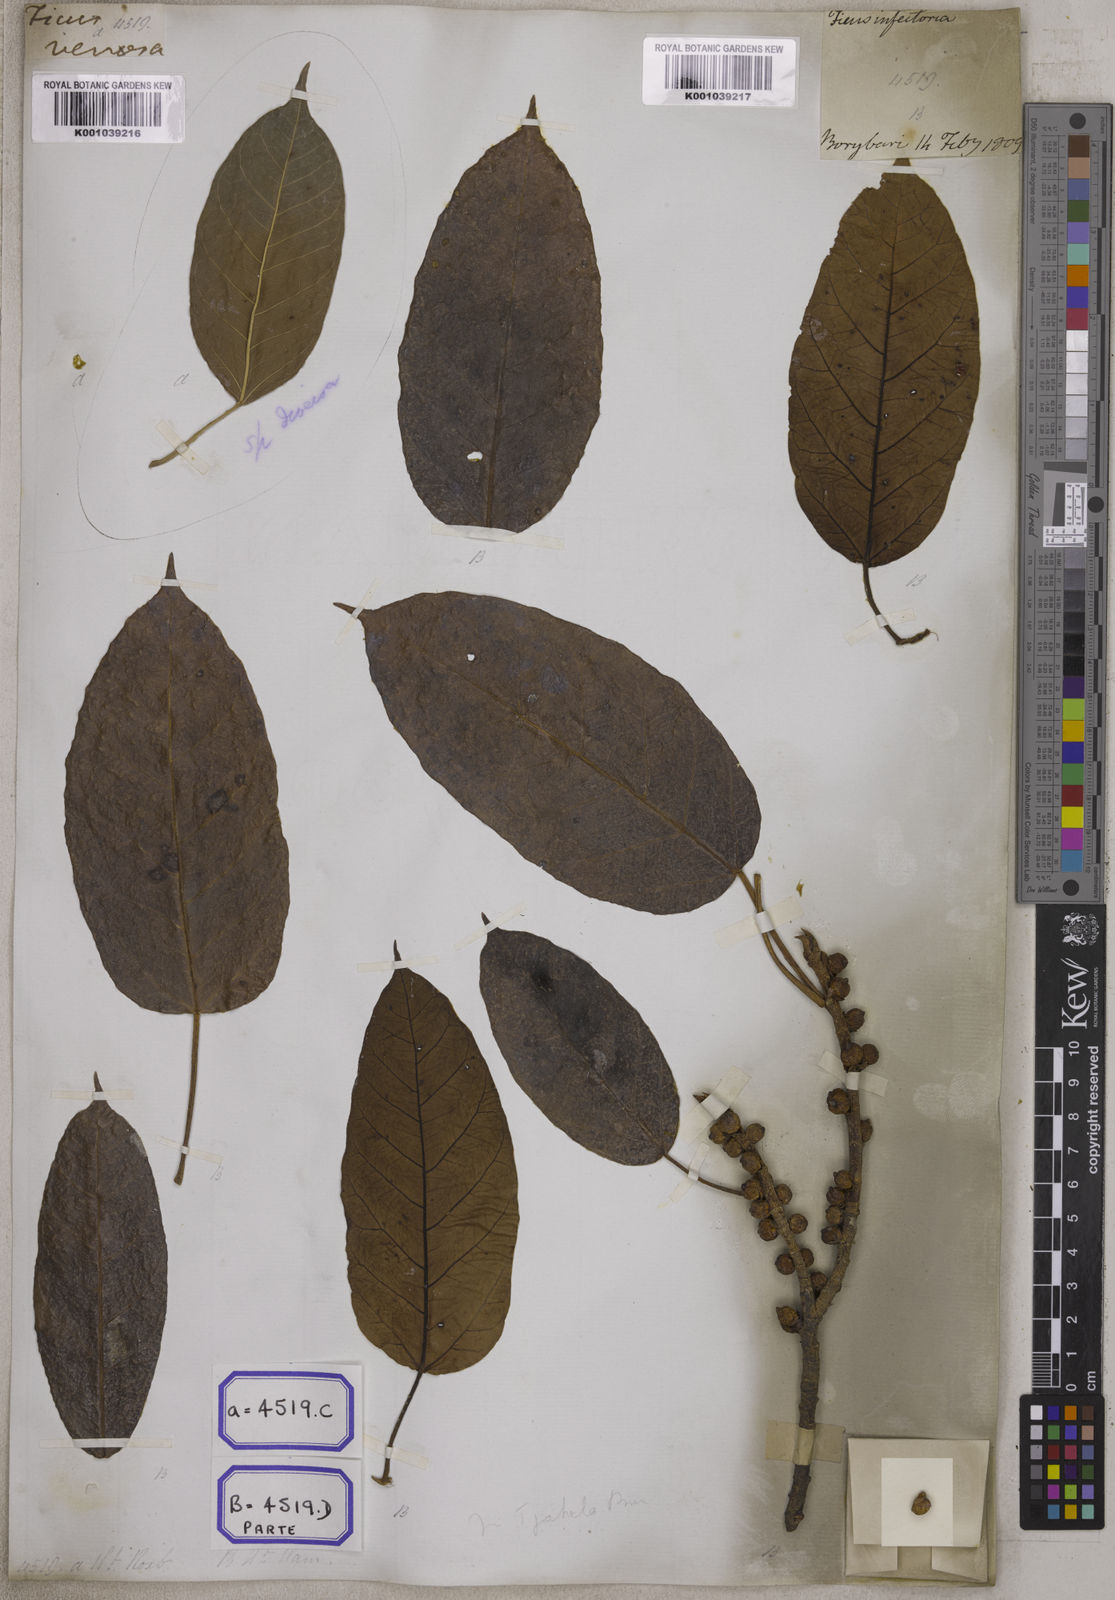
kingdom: Plantae
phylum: Tracheophyta
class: Magnoliopsida
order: Rosales
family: Moraceae
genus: Ficus
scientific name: Ficus
